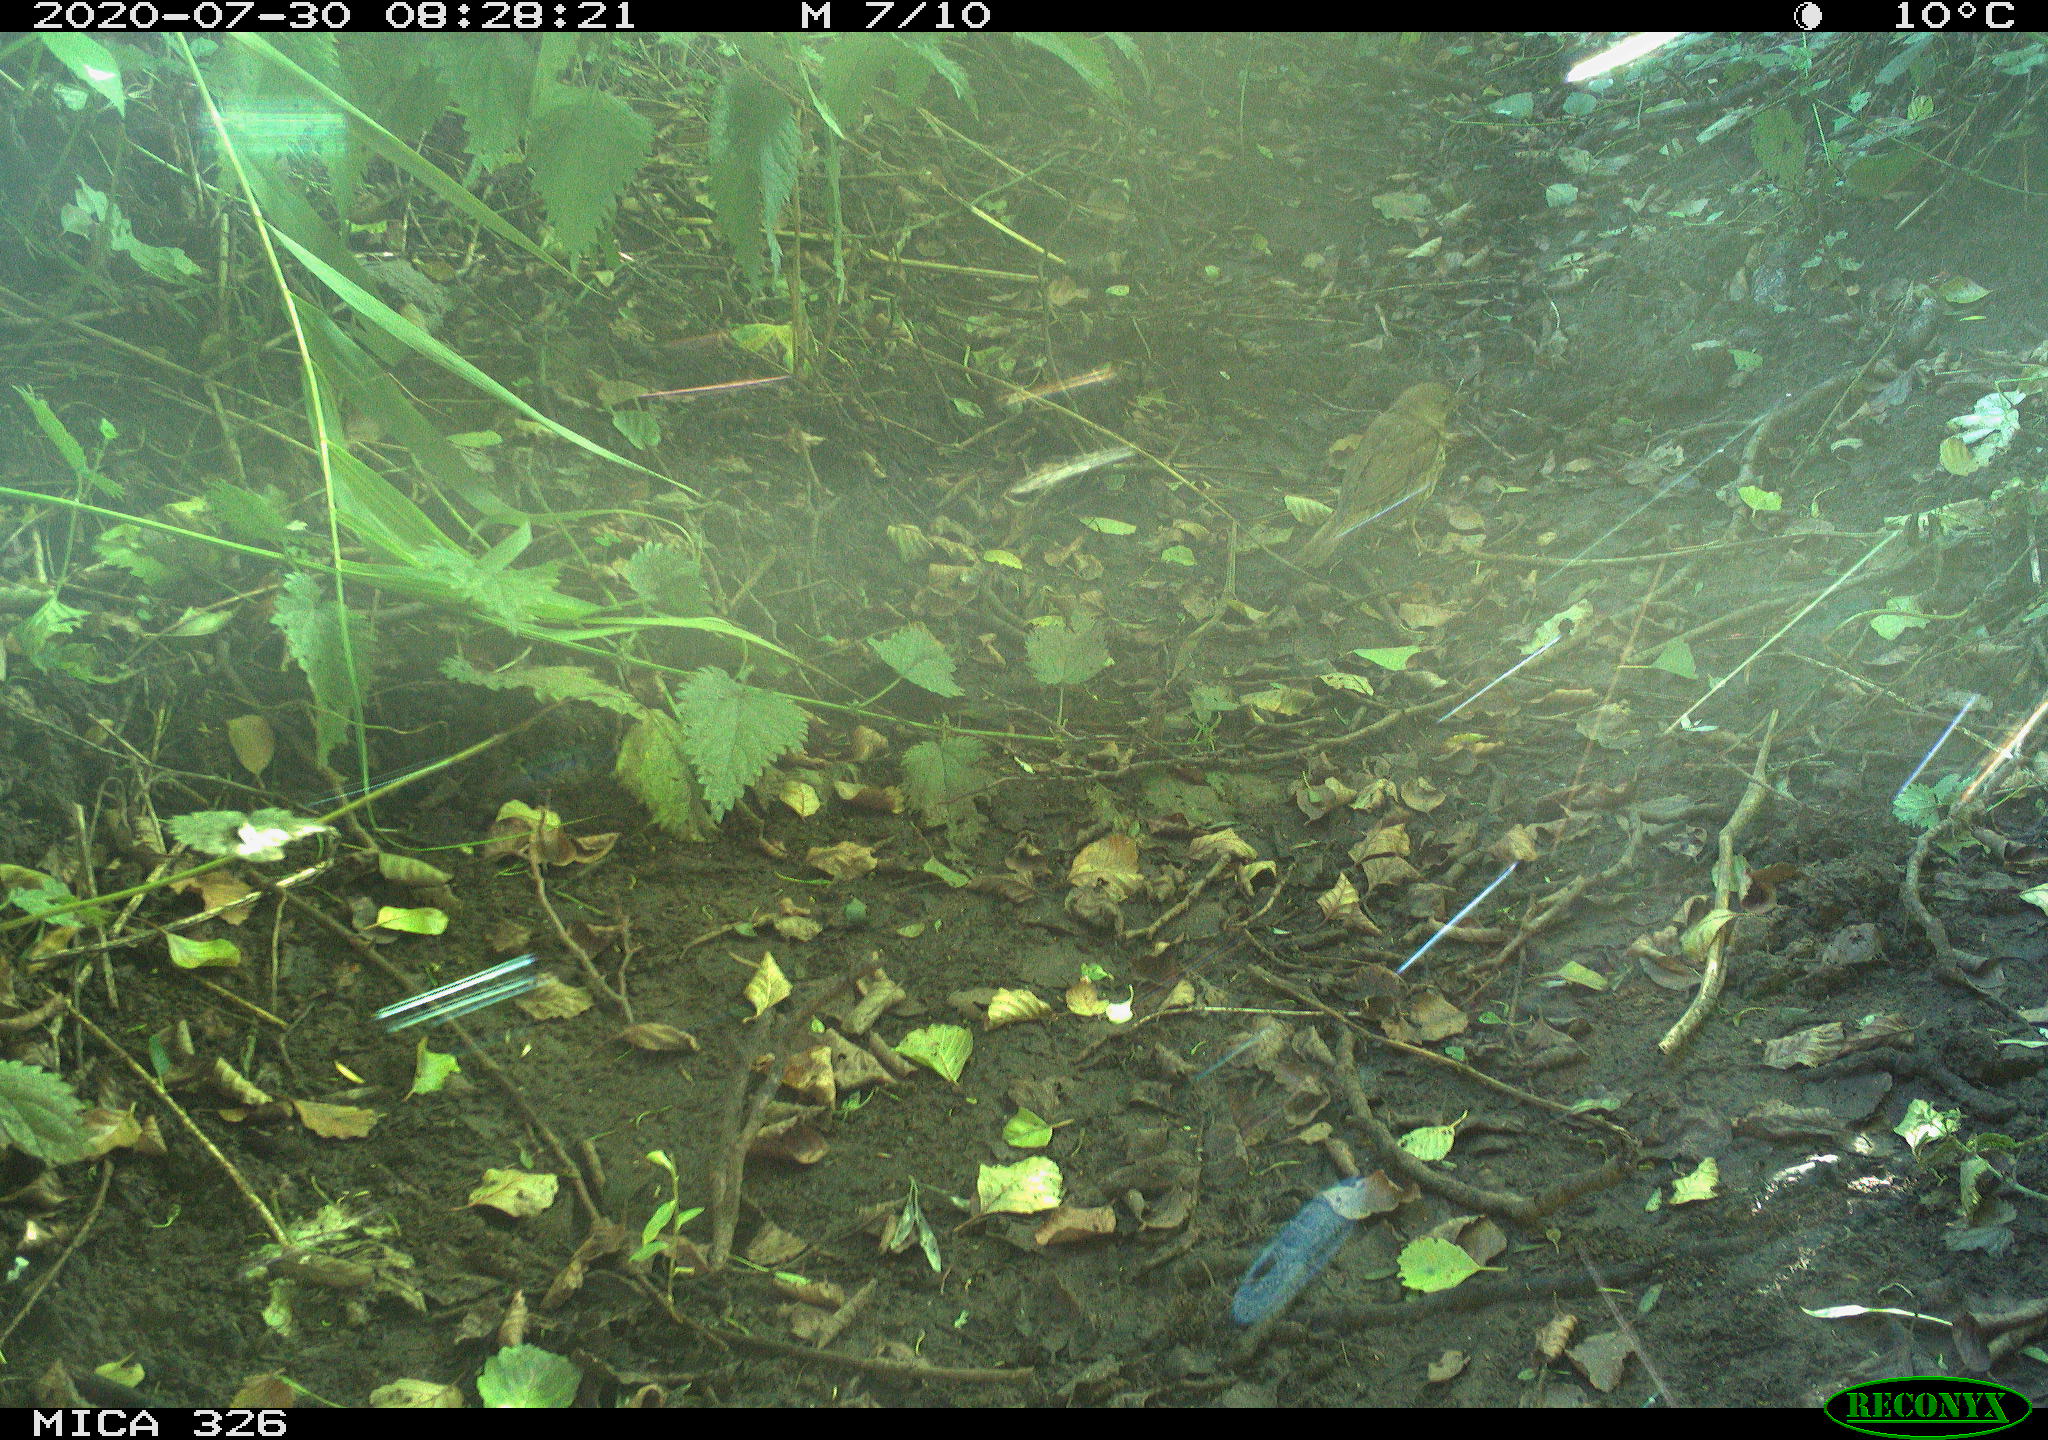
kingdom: Animalia
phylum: Chordata
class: Aves
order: Passeriformes
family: Turdidae
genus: Turdus
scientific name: Turdus philomelos
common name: Song thrush
